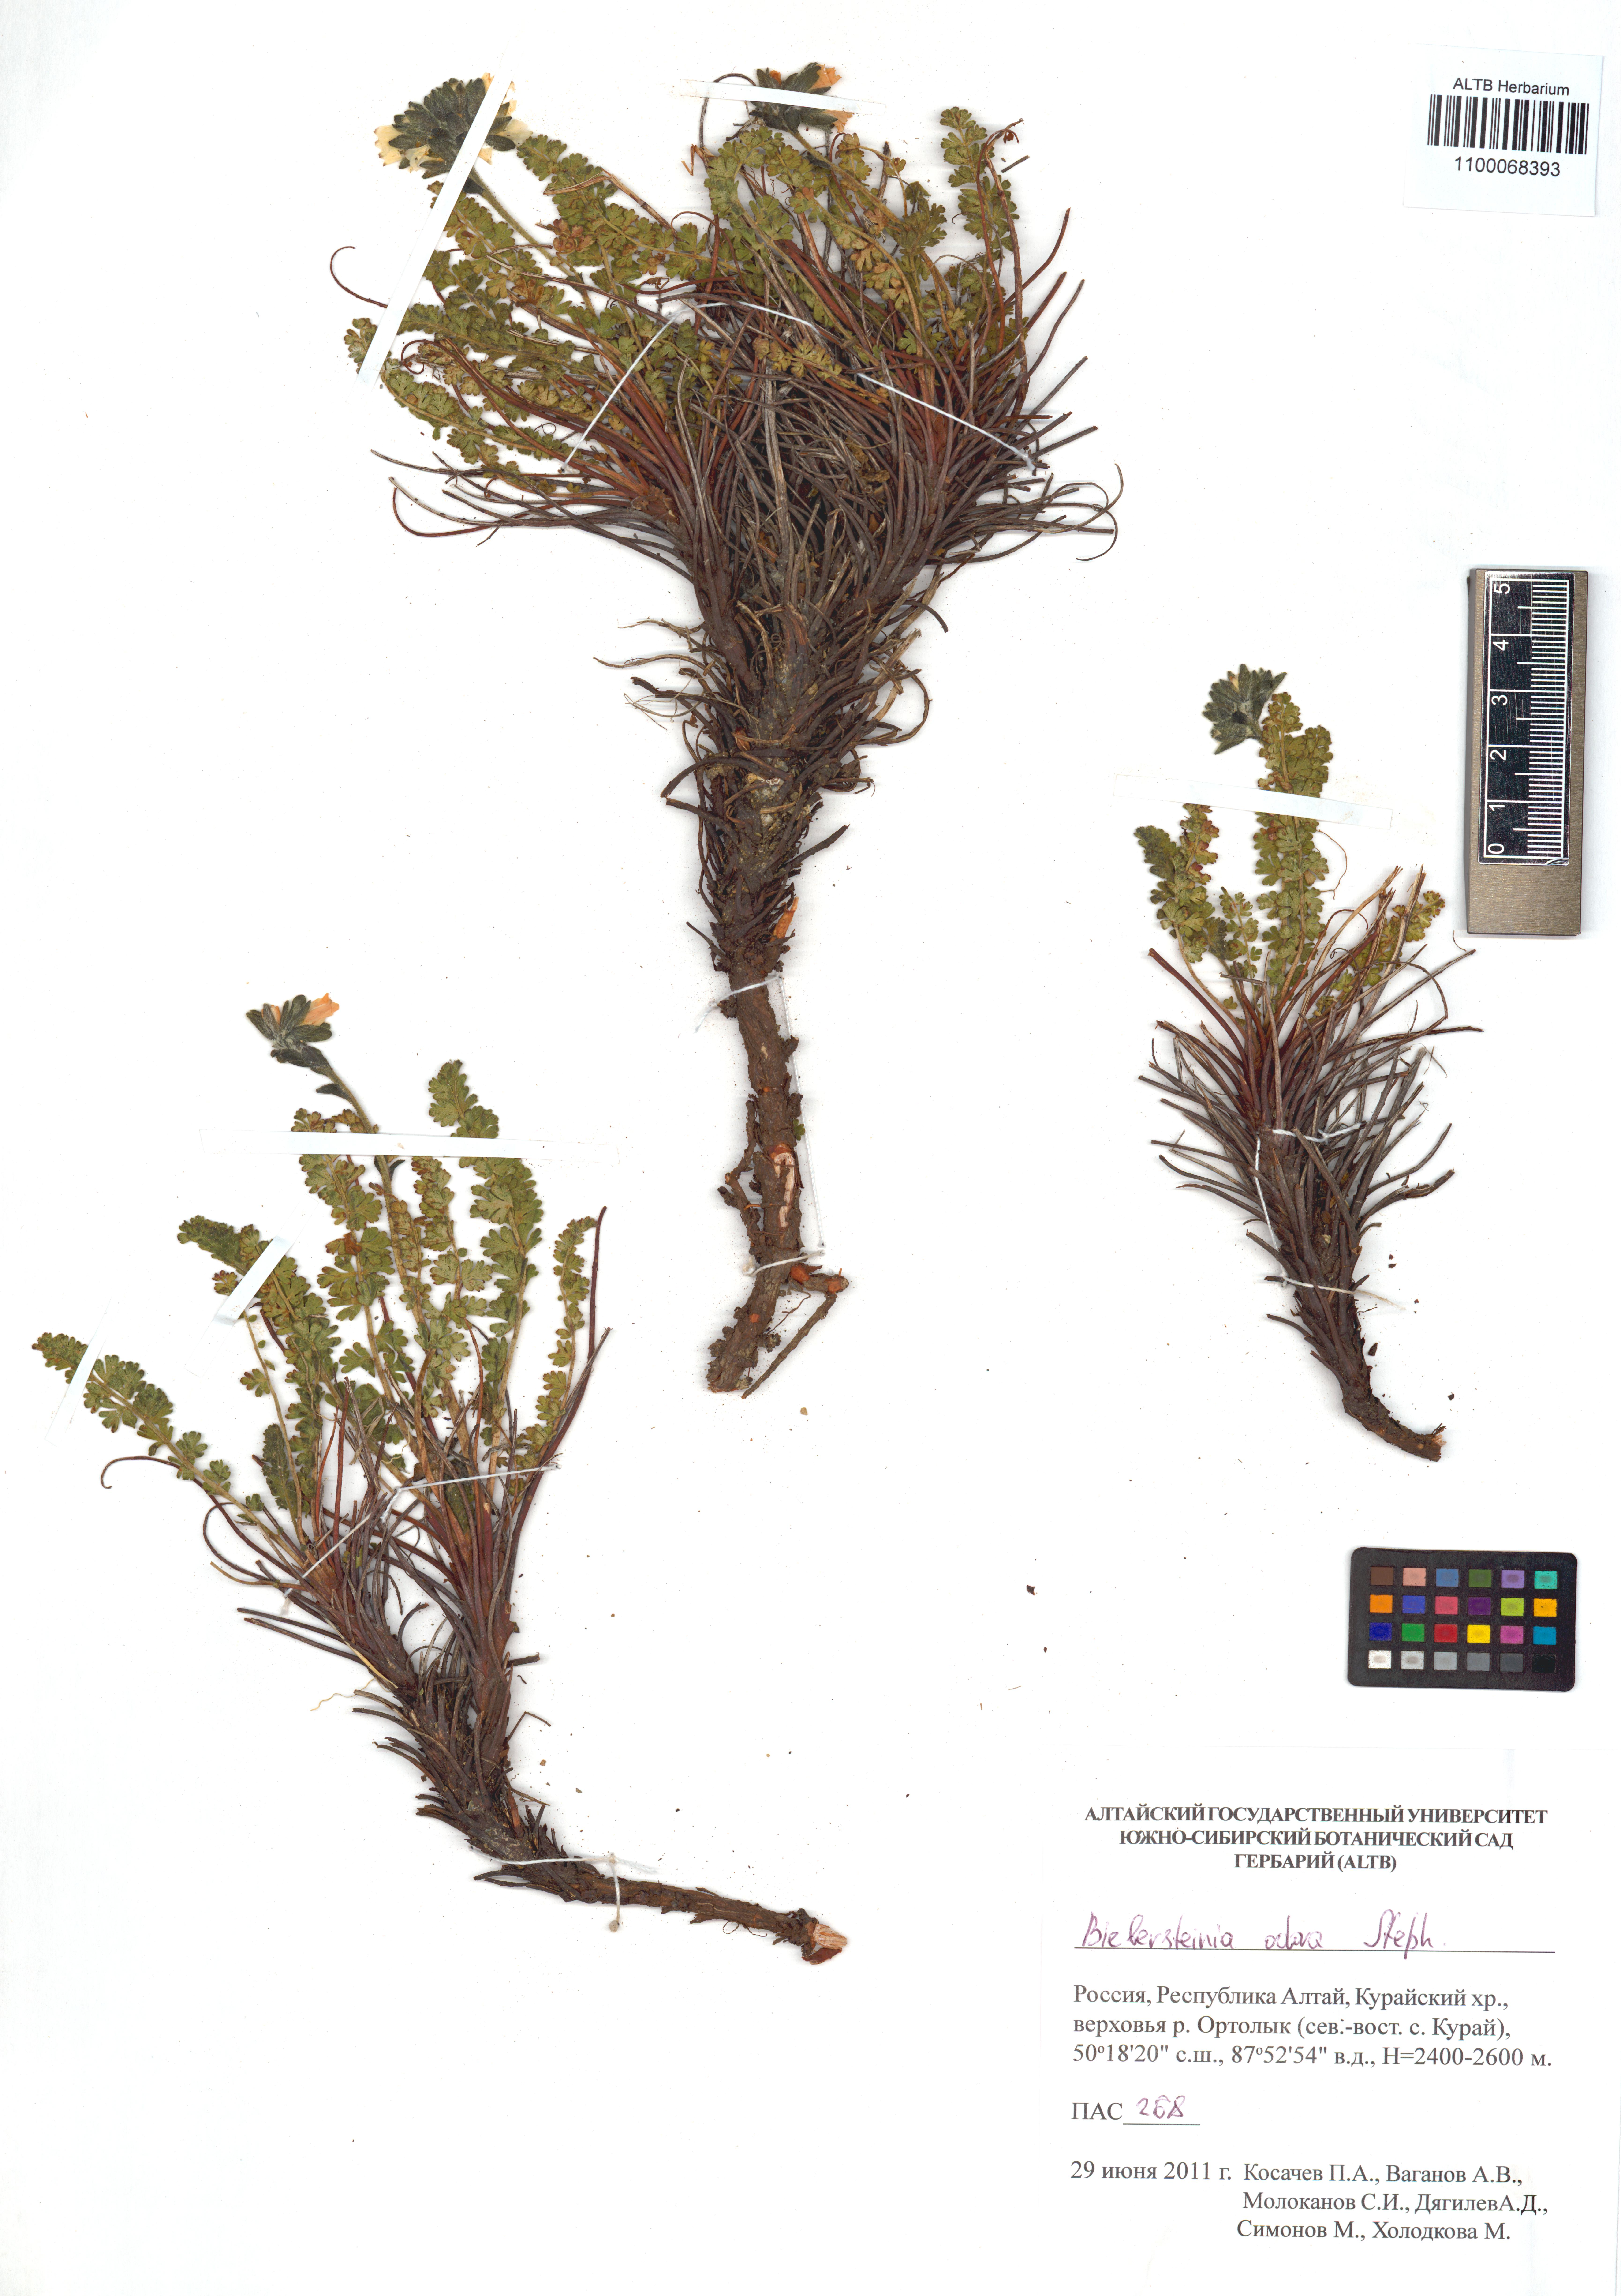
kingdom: Plantae
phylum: Tracheophyta
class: Magnoliopsida
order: Sapindales
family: Biebersteiniaceae
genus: Biebersteinia
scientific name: Biebersteinia odora
